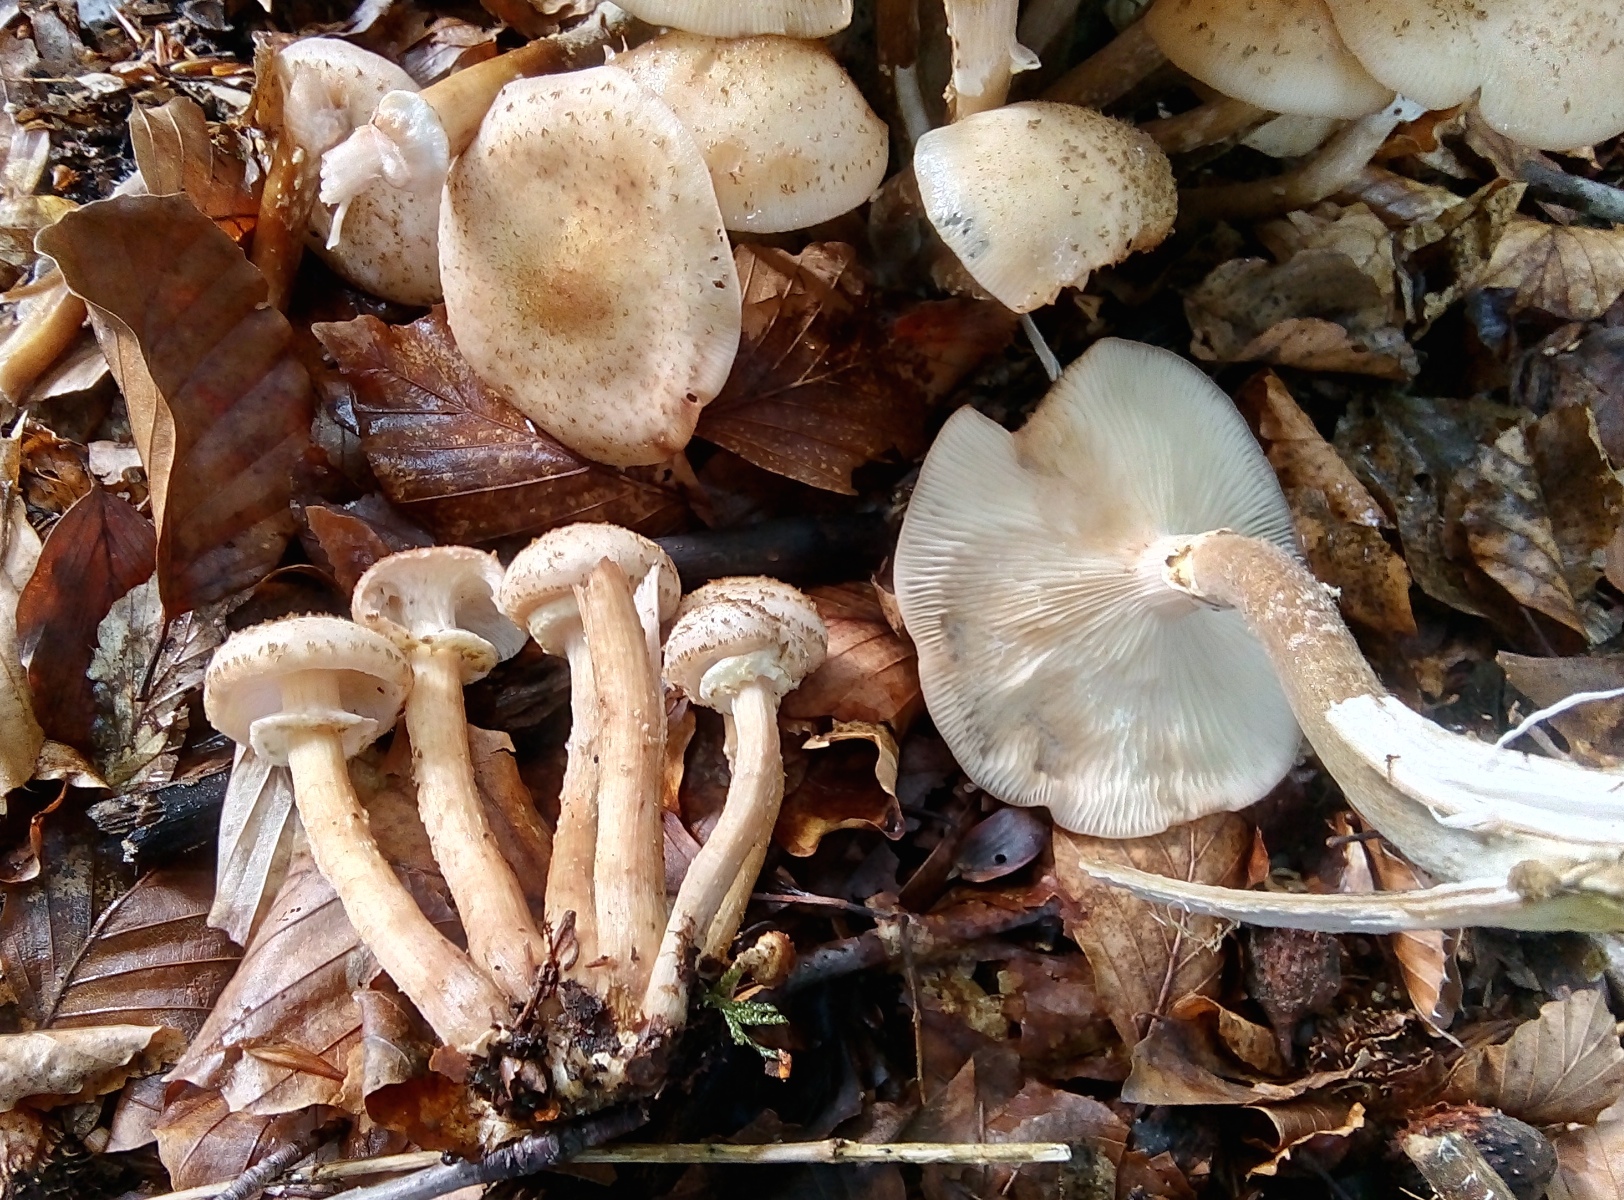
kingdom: Fungi
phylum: Basidiomycota
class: Agaricomycetes
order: Agaricales
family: Physalacriaceae
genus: Armillaria
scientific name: Armillaria borealis
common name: nordlig honningsvamp
